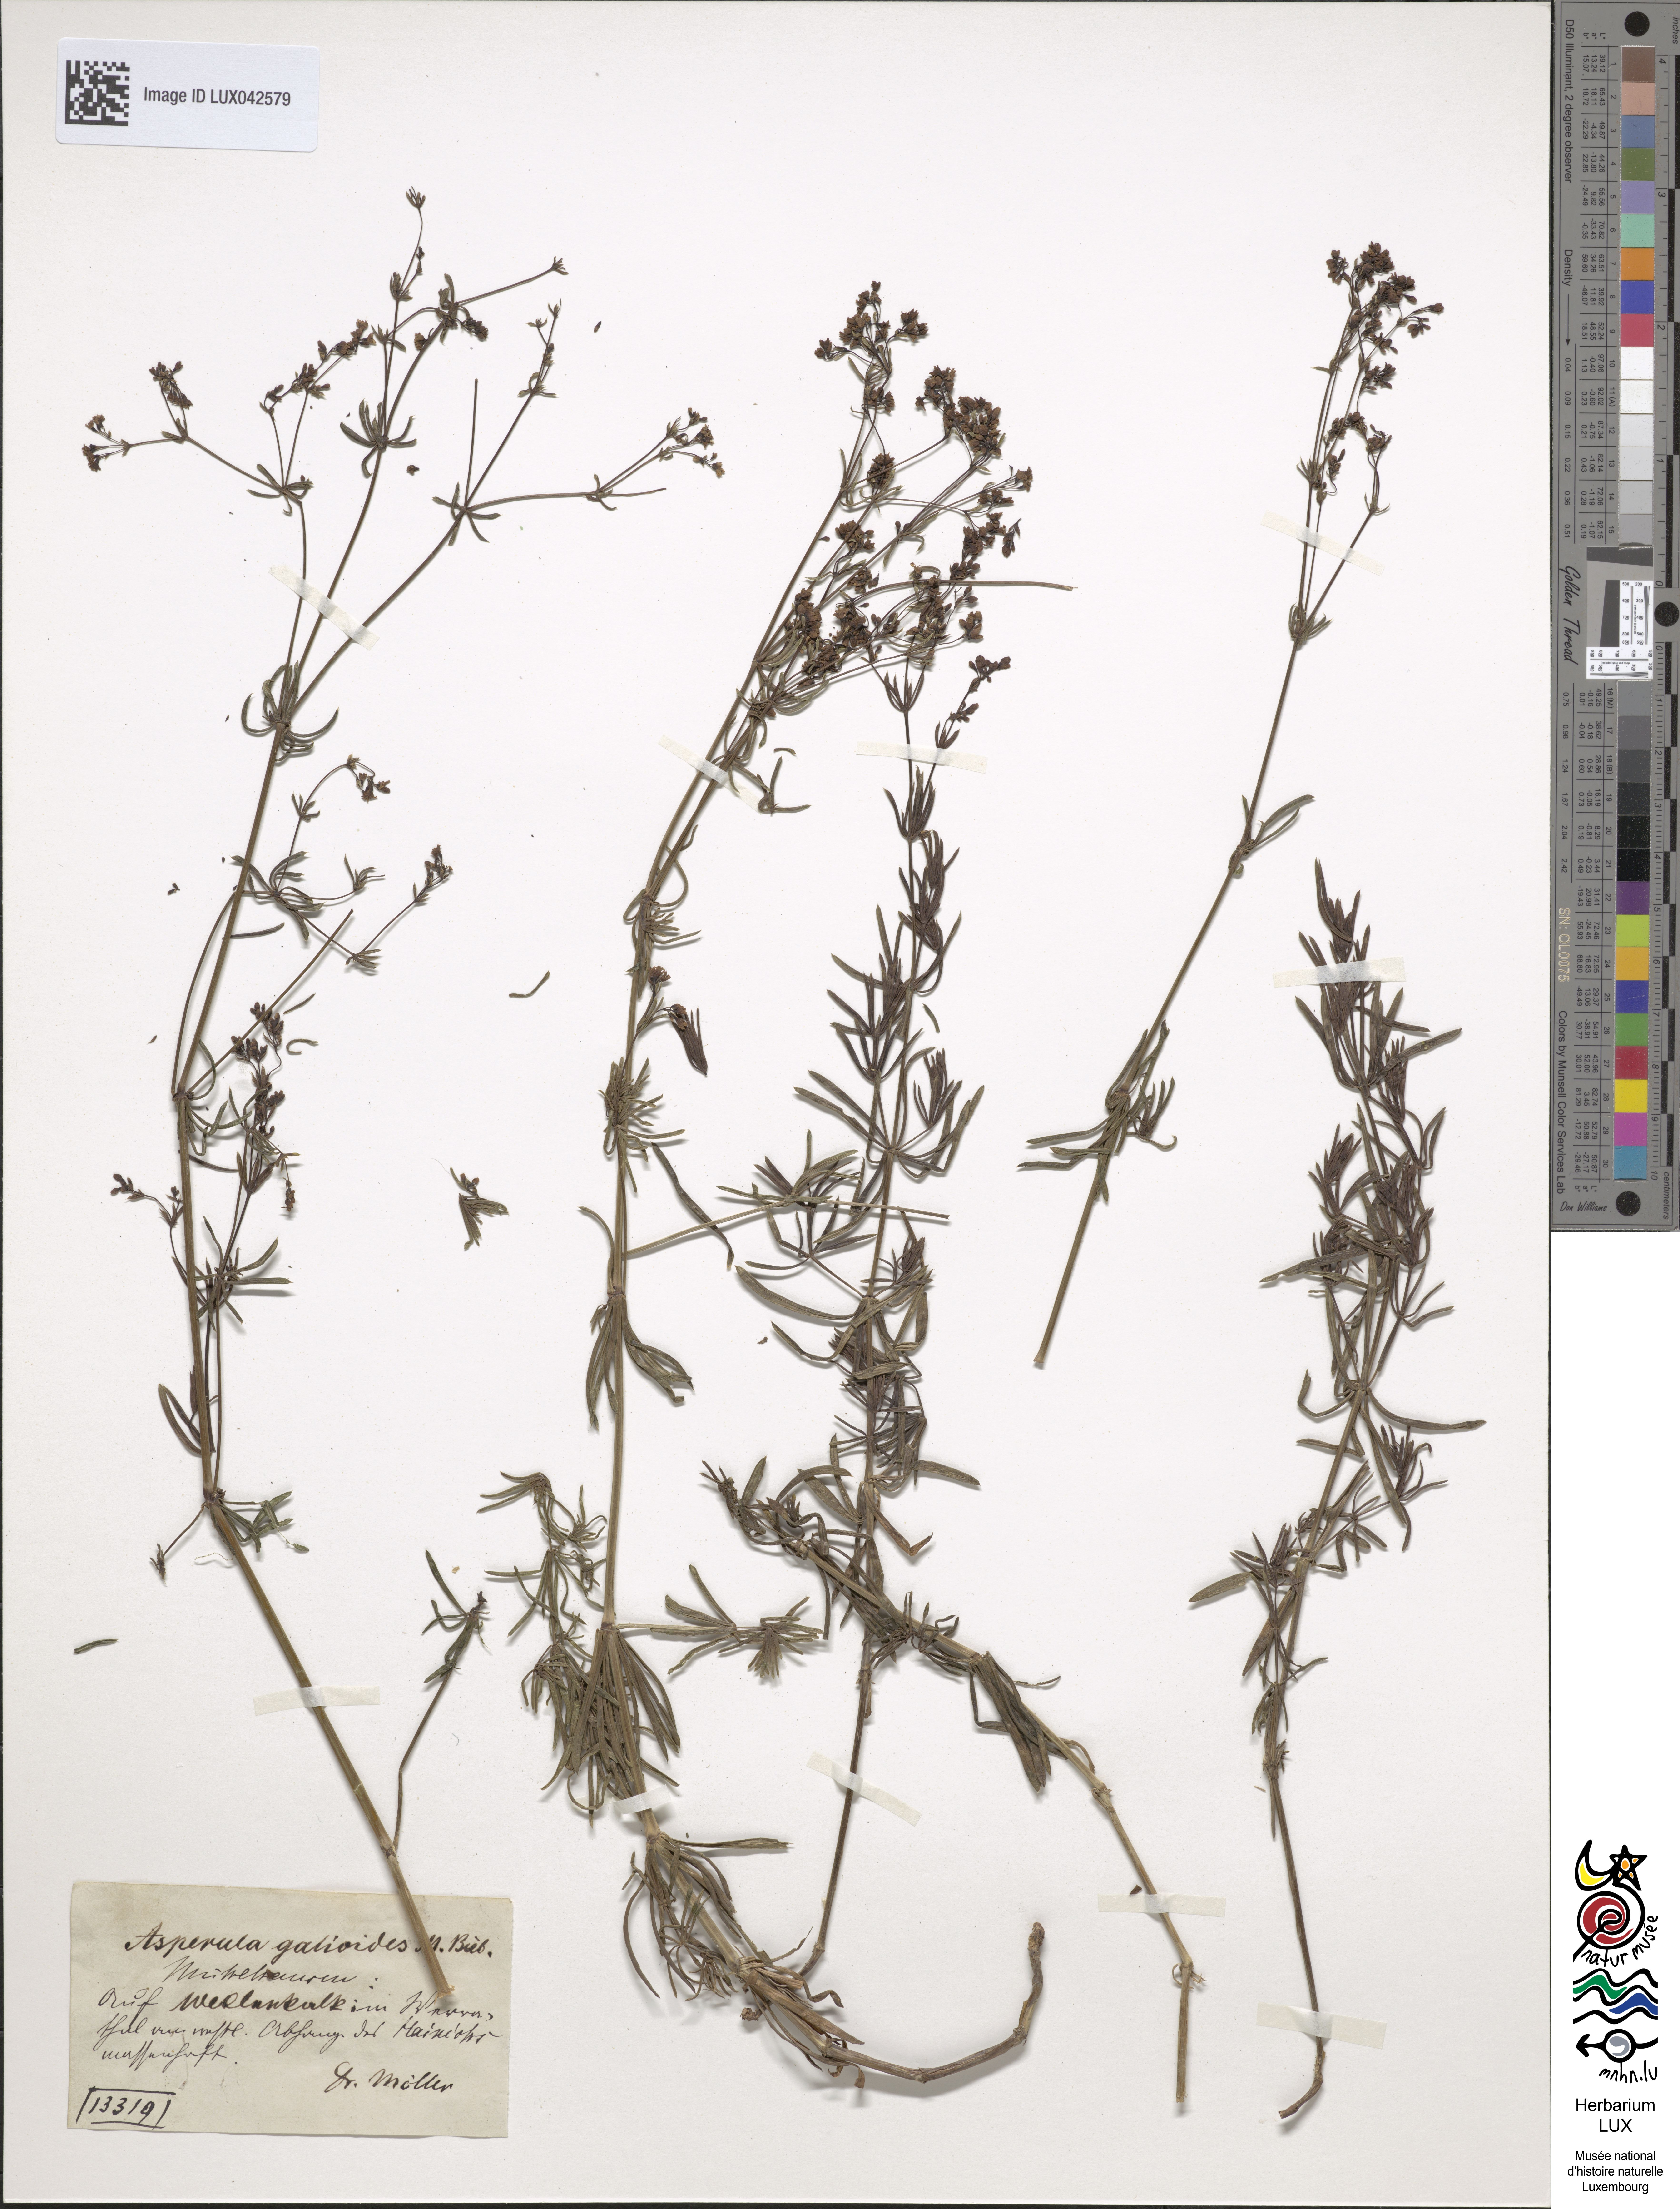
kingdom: Plantae
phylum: Tracheophyta
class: Magnoliopsida
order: Gentianales
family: Rubiaceae
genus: Galium
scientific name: Galium glaucum
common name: Waxy bedstraw
